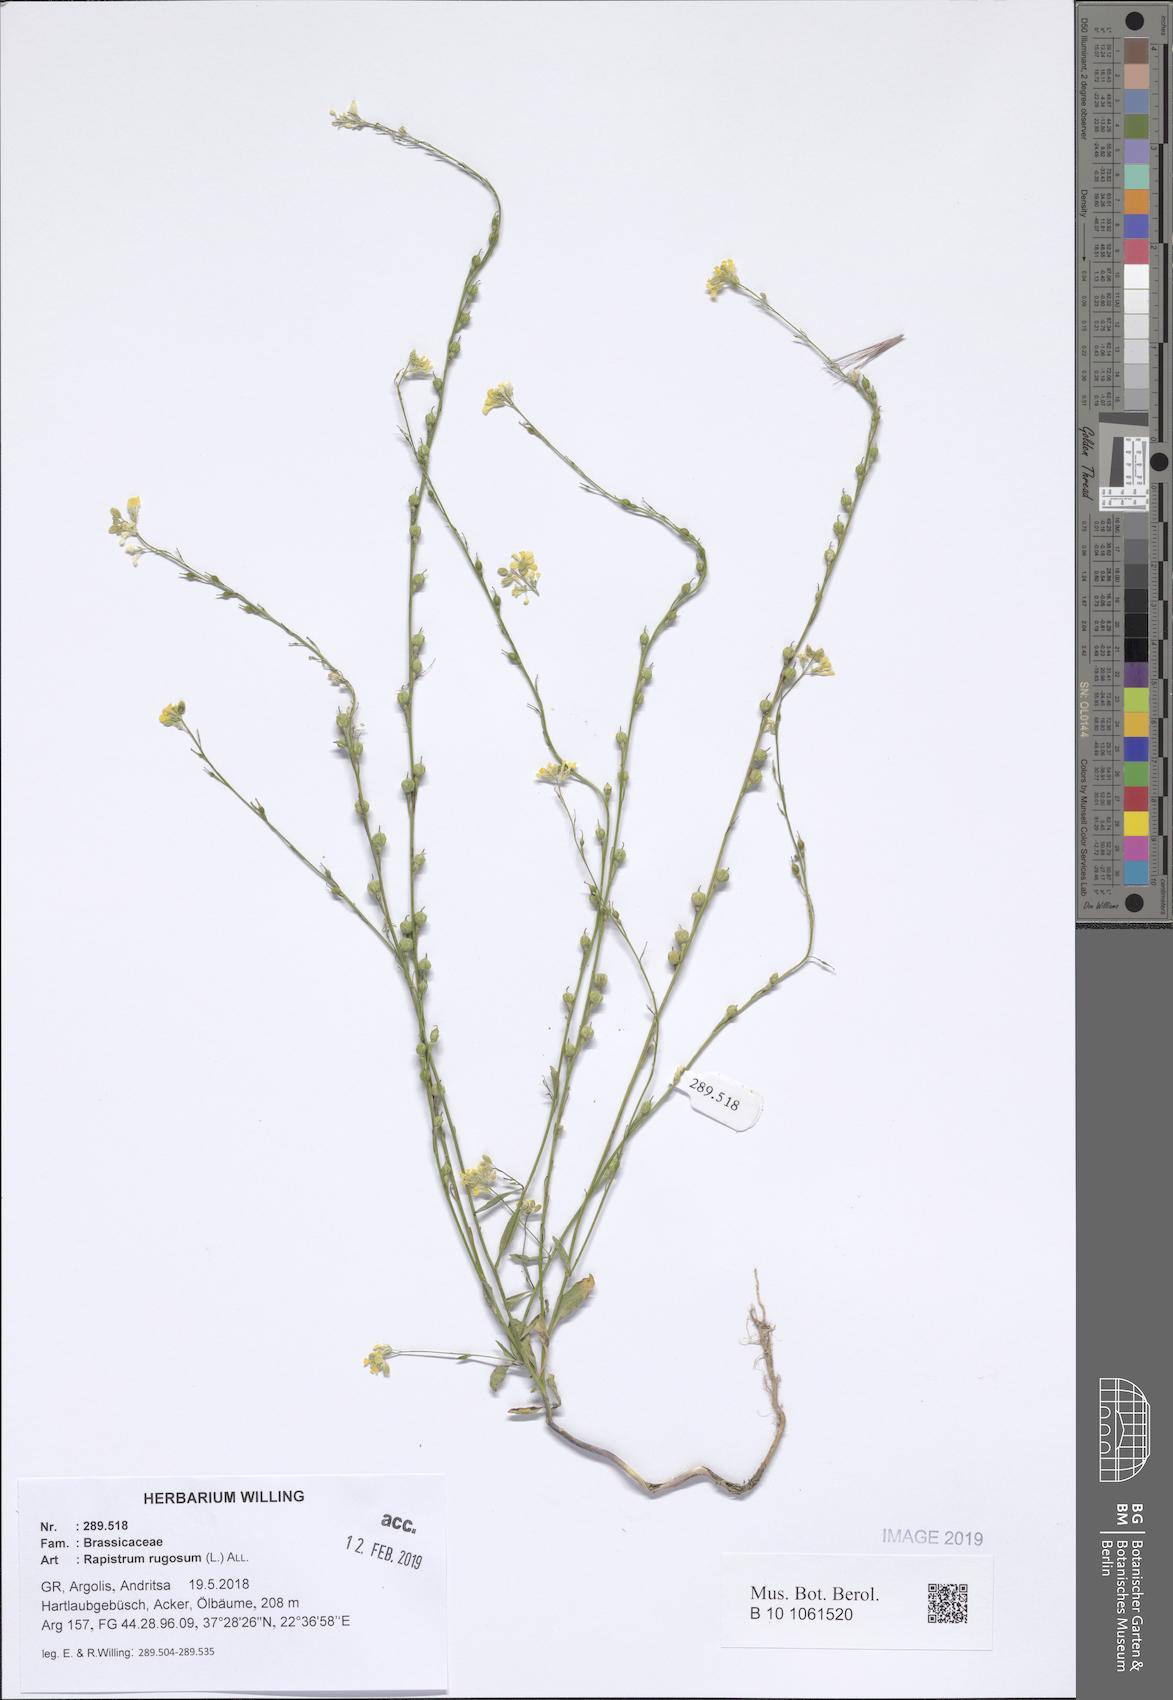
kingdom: Plantae
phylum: Tracheophyta
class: Magnoliopsida
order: Brassicales
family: Brassicaceae
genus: Rapistrum
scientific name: Rapistrum rugosum
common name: Annual bastardcabbage
